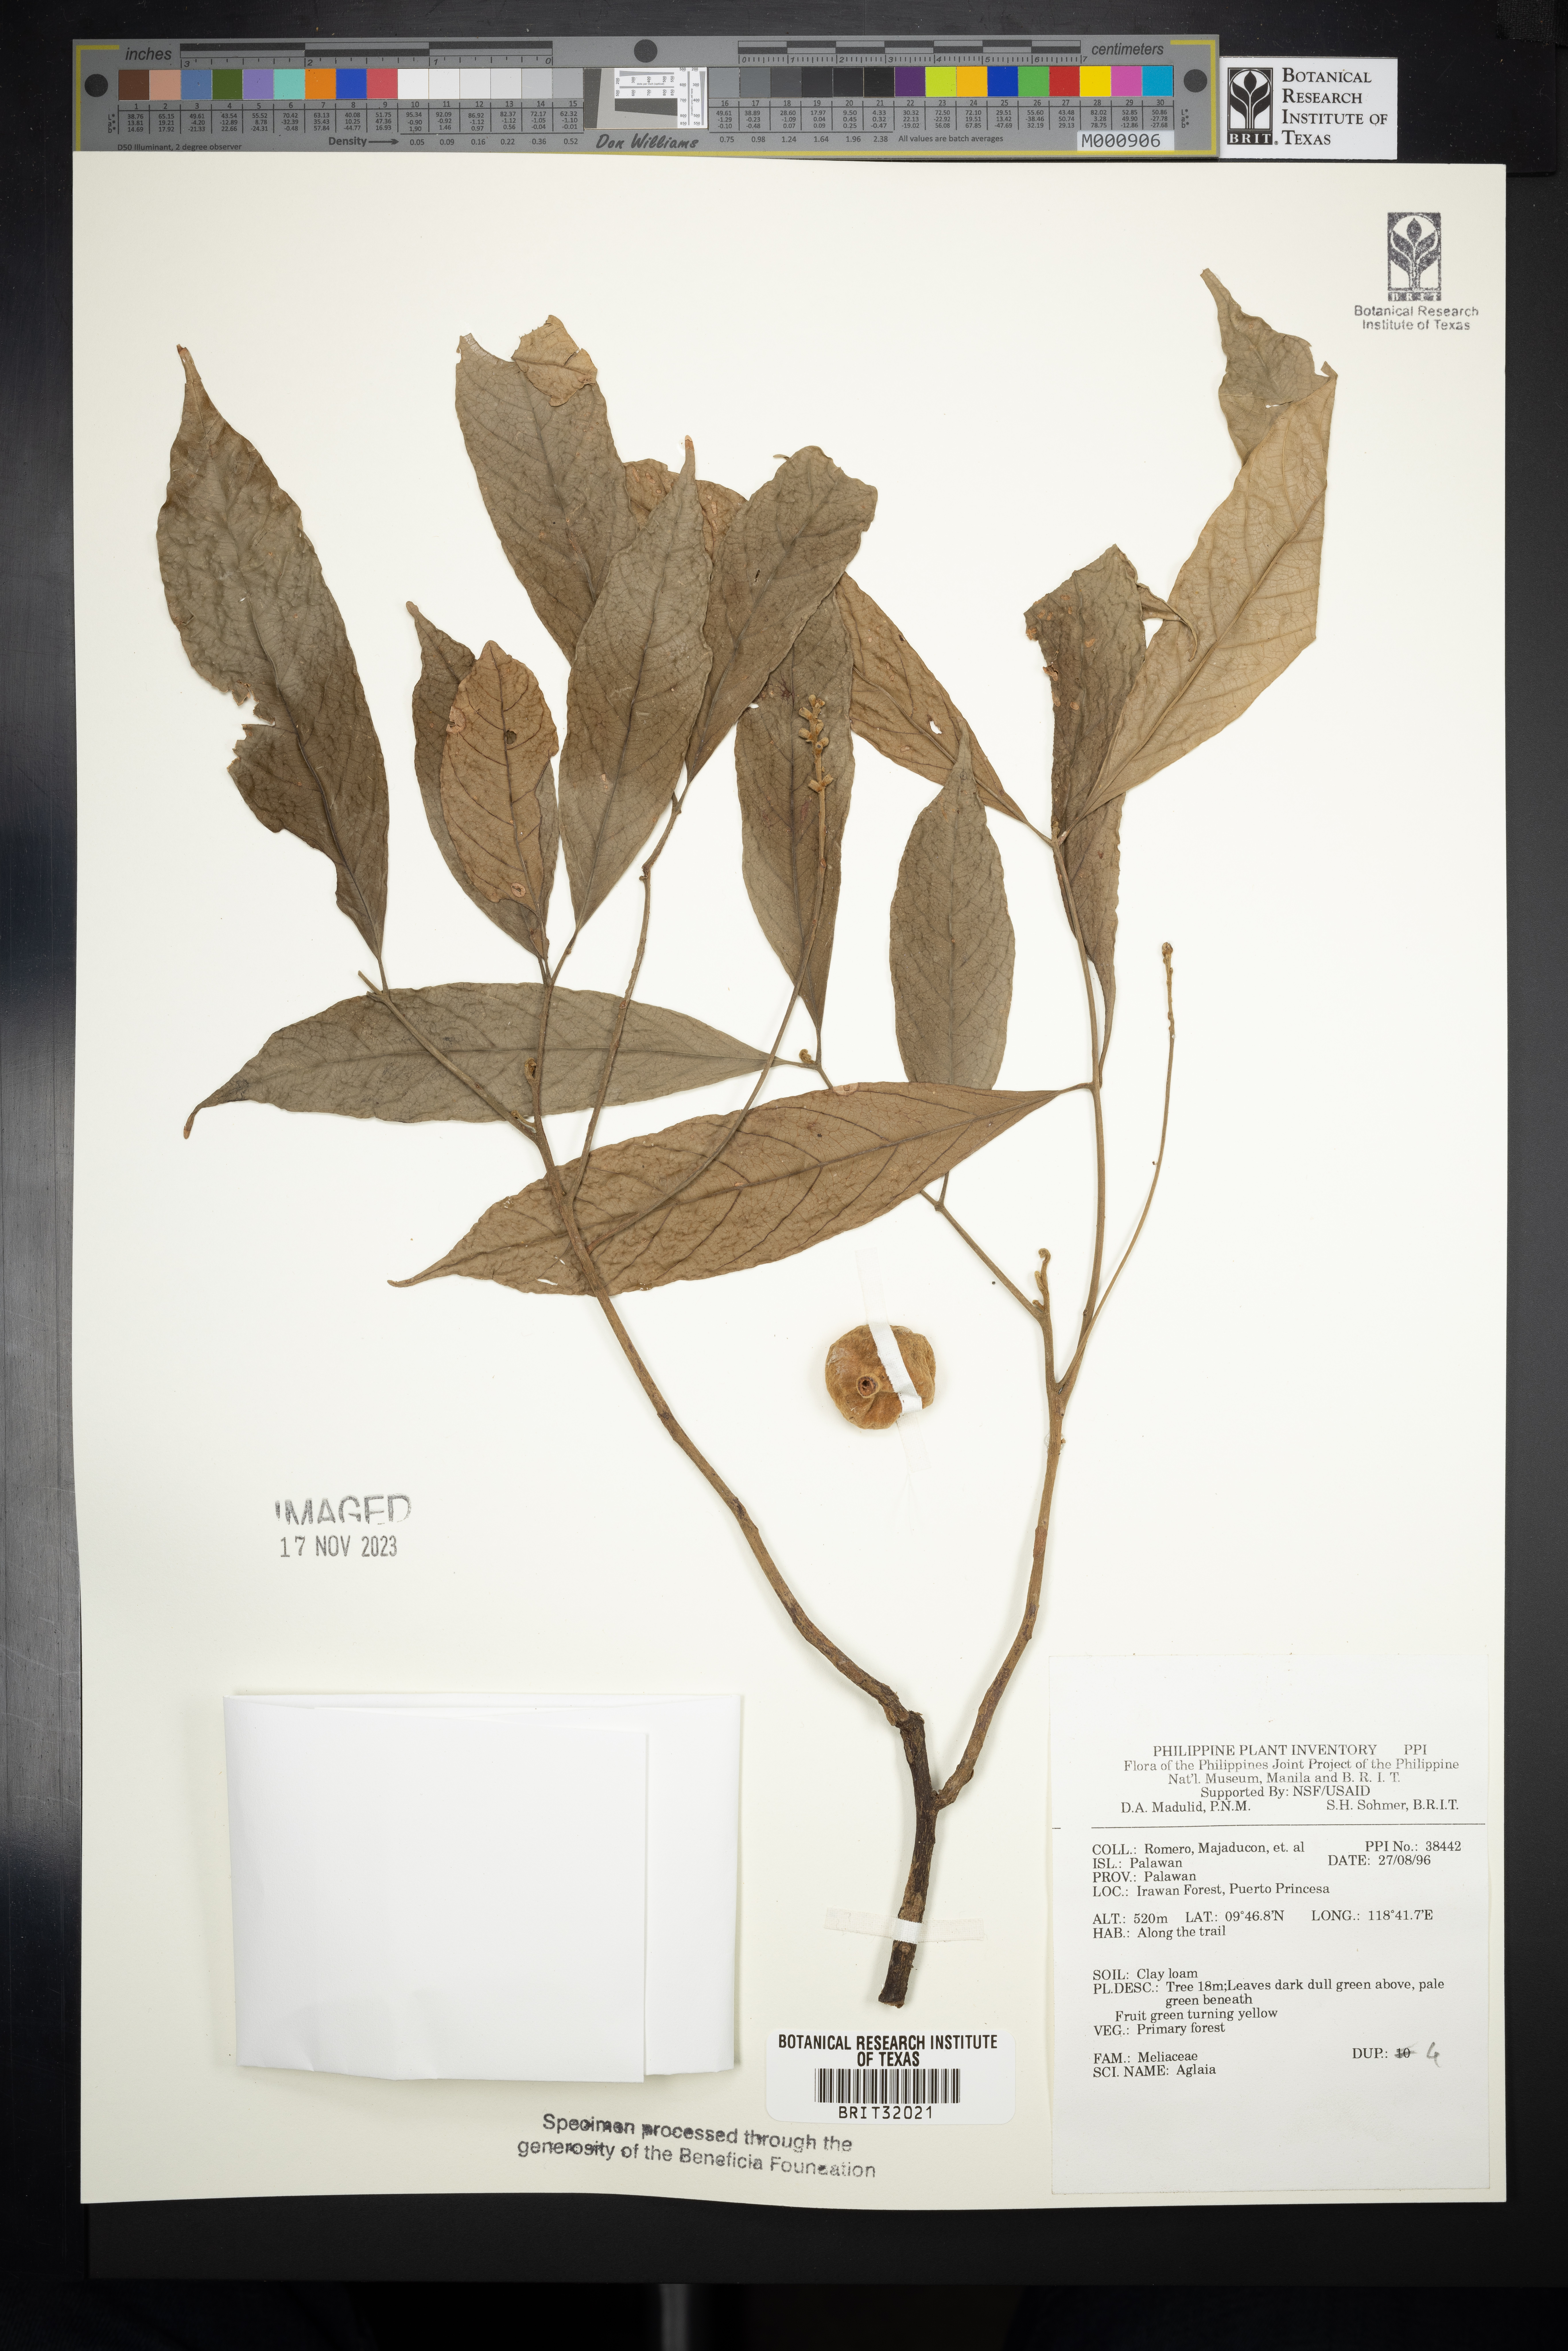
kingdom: Plantae
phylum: Tracheophyta
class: Magnoliopsida
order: Sapindales
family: Meliaceae
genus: Aglaia
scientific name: Aglaia
